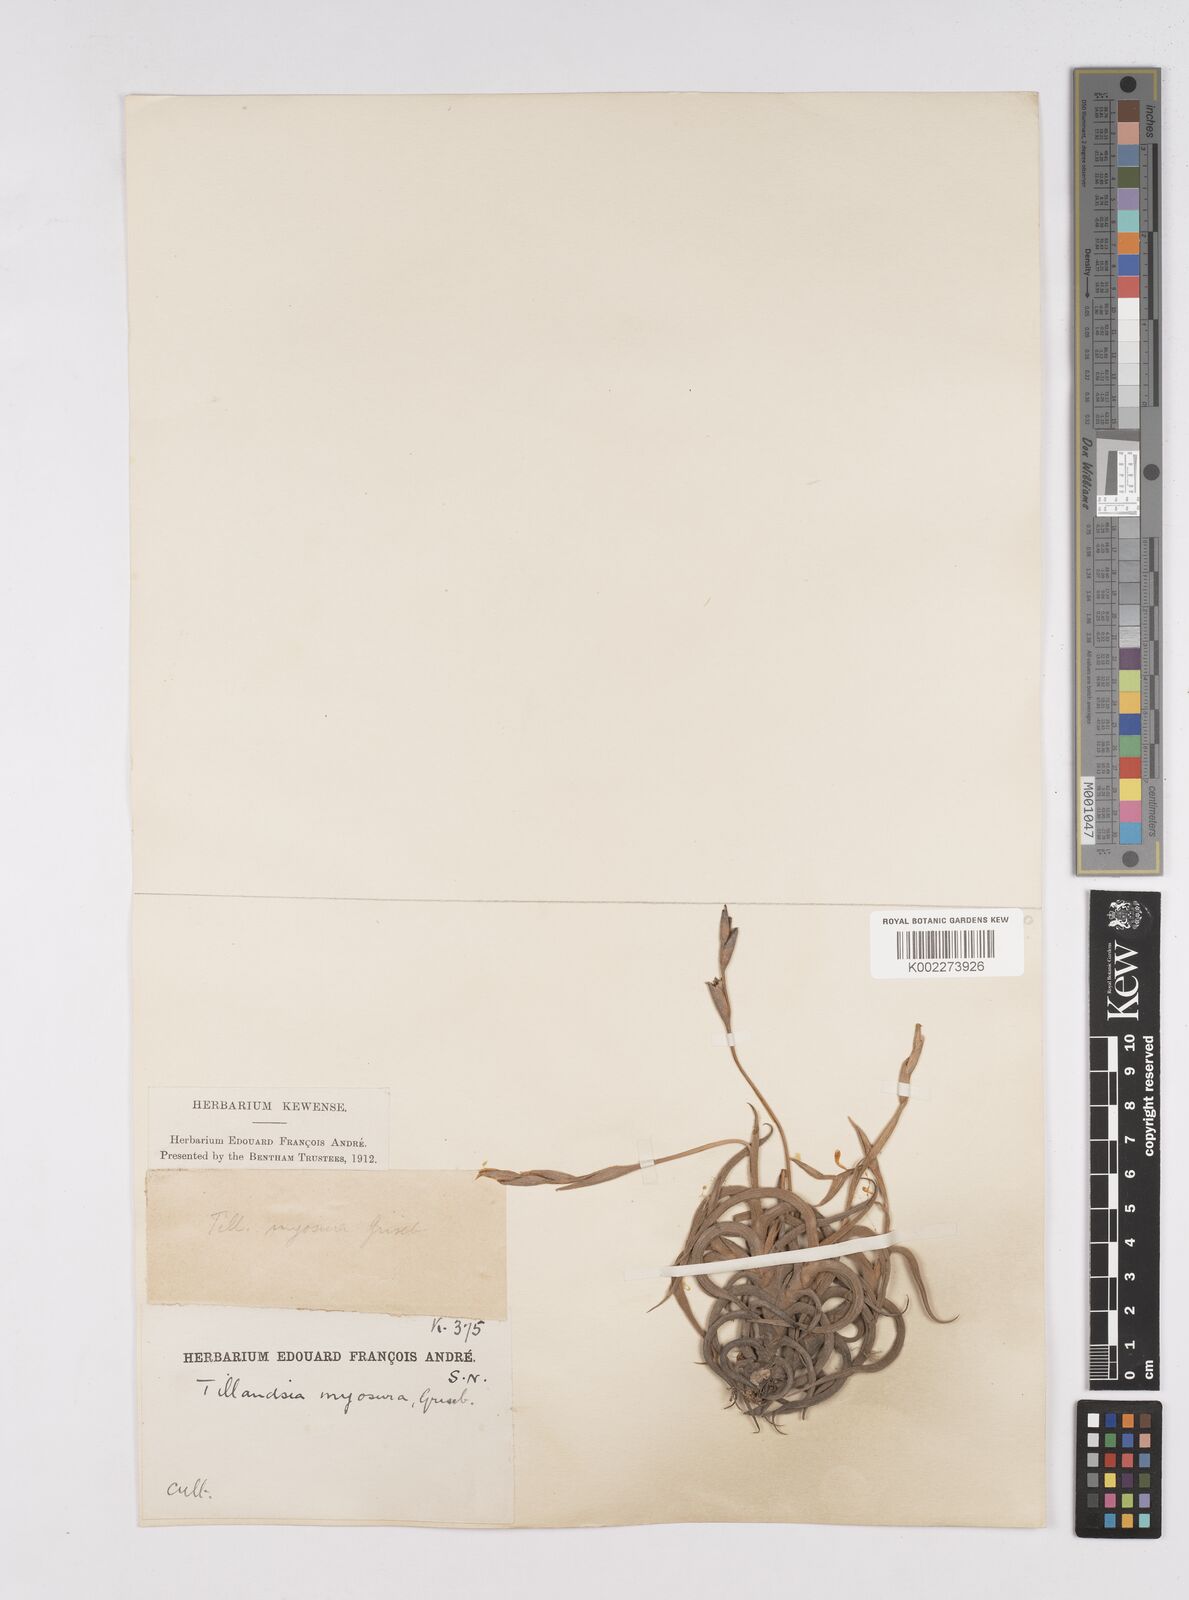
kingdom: Plantae
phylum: Tracheophyta
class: Liliopsida
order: Poales
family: Bromeliaceae
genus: Tillandsia
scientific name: Tillandsia myosura
